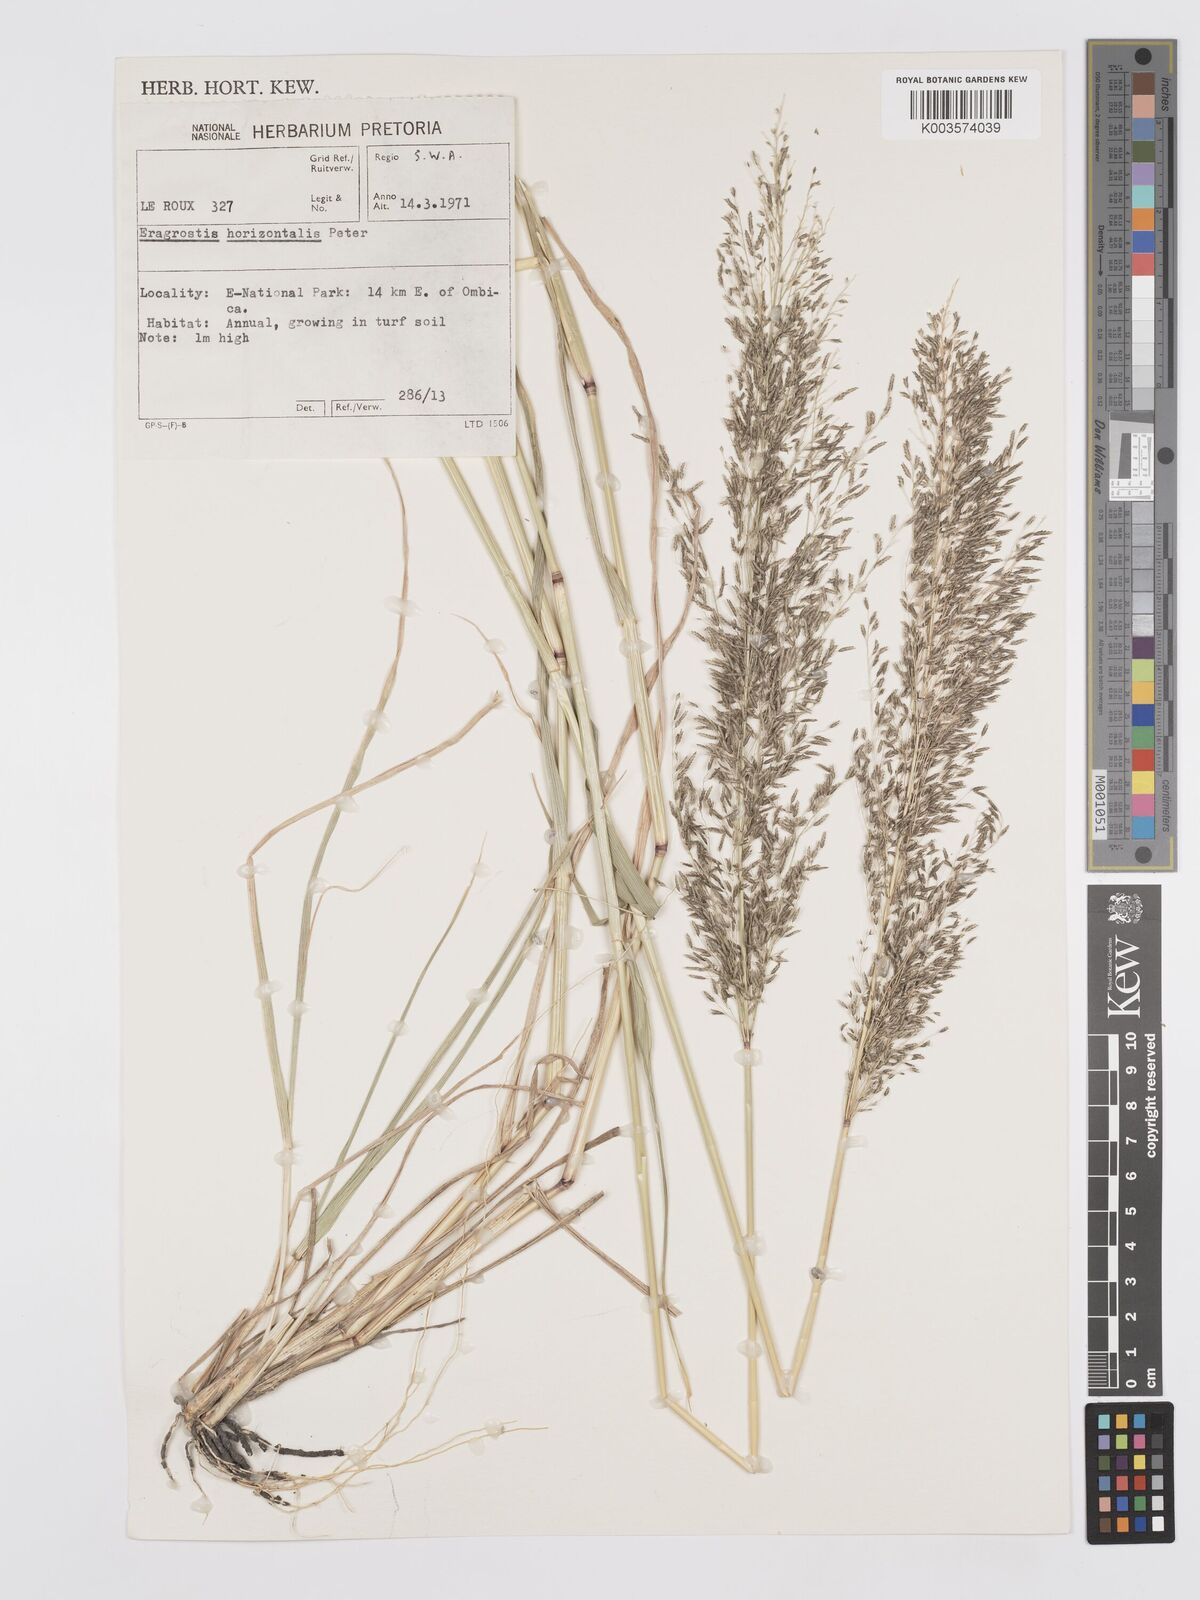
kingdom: Plantae
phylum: Tracheophyta
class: Liliopsida
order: Poales
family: Poaceae
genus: Eragrostis
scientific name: Eragrostis cylindriflora
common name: Cylinderflower lovegrass
